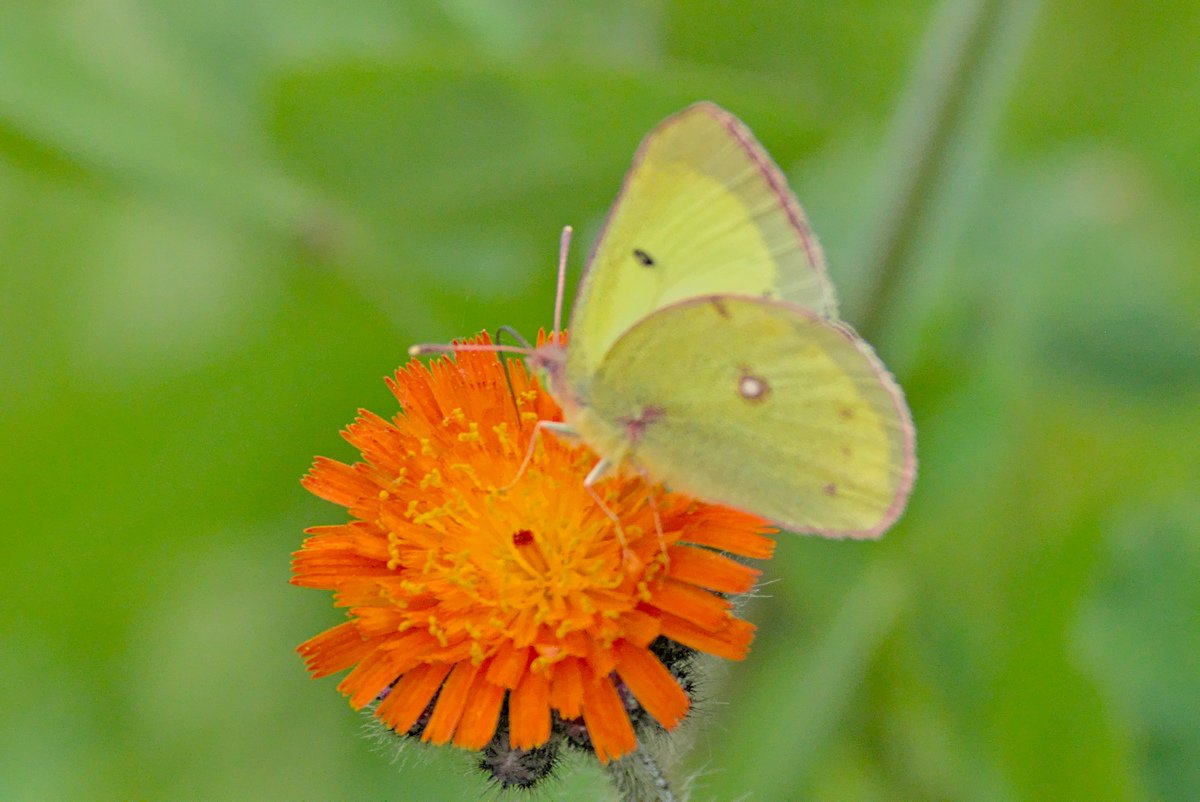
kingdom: Animalia
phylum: Arthropoda
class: Insecta
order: Lepidoptera
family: Pieridae
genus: Colias
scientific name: Colias philodice
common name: Clouded Sulphur
